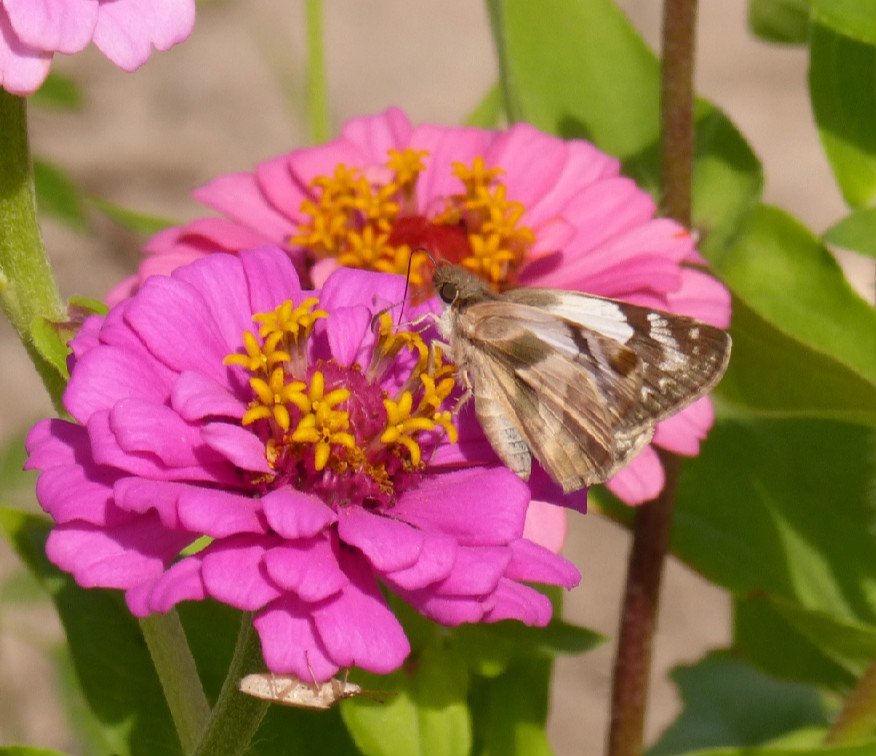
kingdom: Animalia
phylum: Arthropoda
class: Insecta
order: Lepidoptera
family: Hesperiidae
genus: Heliopetes
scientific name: Heliopetes laviana
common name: Laviana White-Skipper
